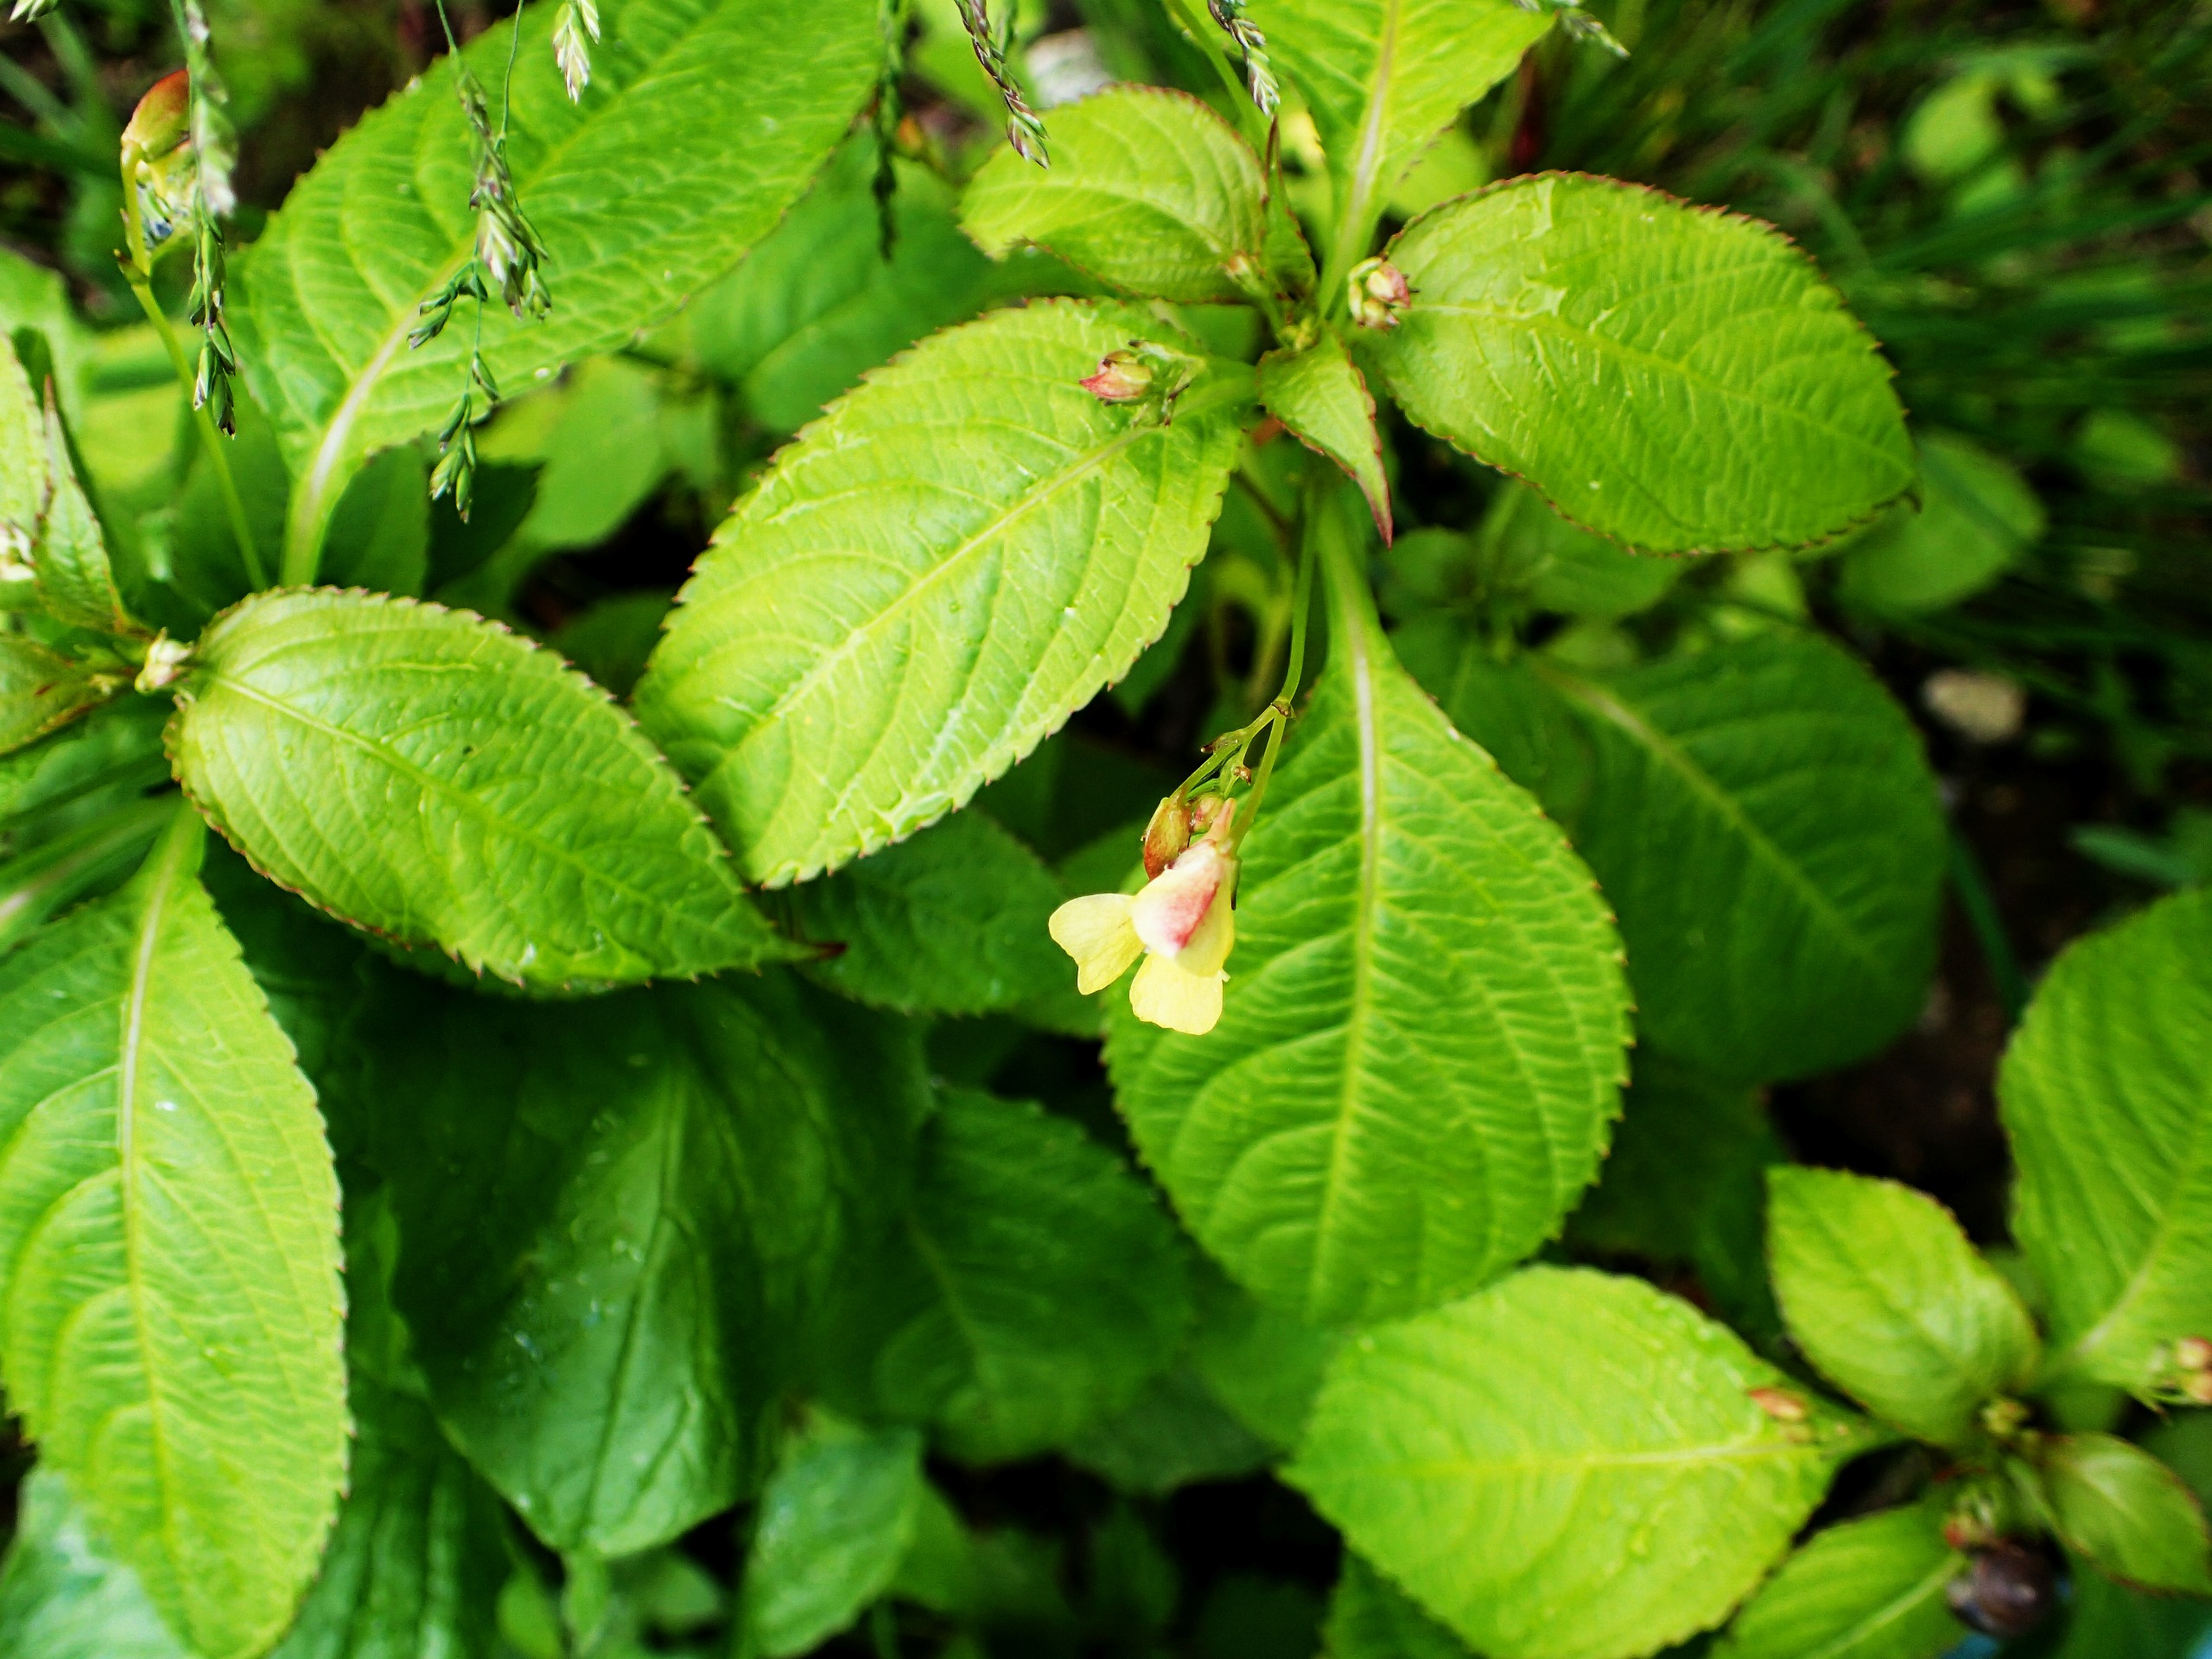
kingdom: Plantae
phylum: Tracheophyta
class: Magnoliopsida
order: Ericales
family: Balsaminaceae
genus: Impatiens
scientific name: Impatiens parviflora
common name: Småblomstret balsamin
